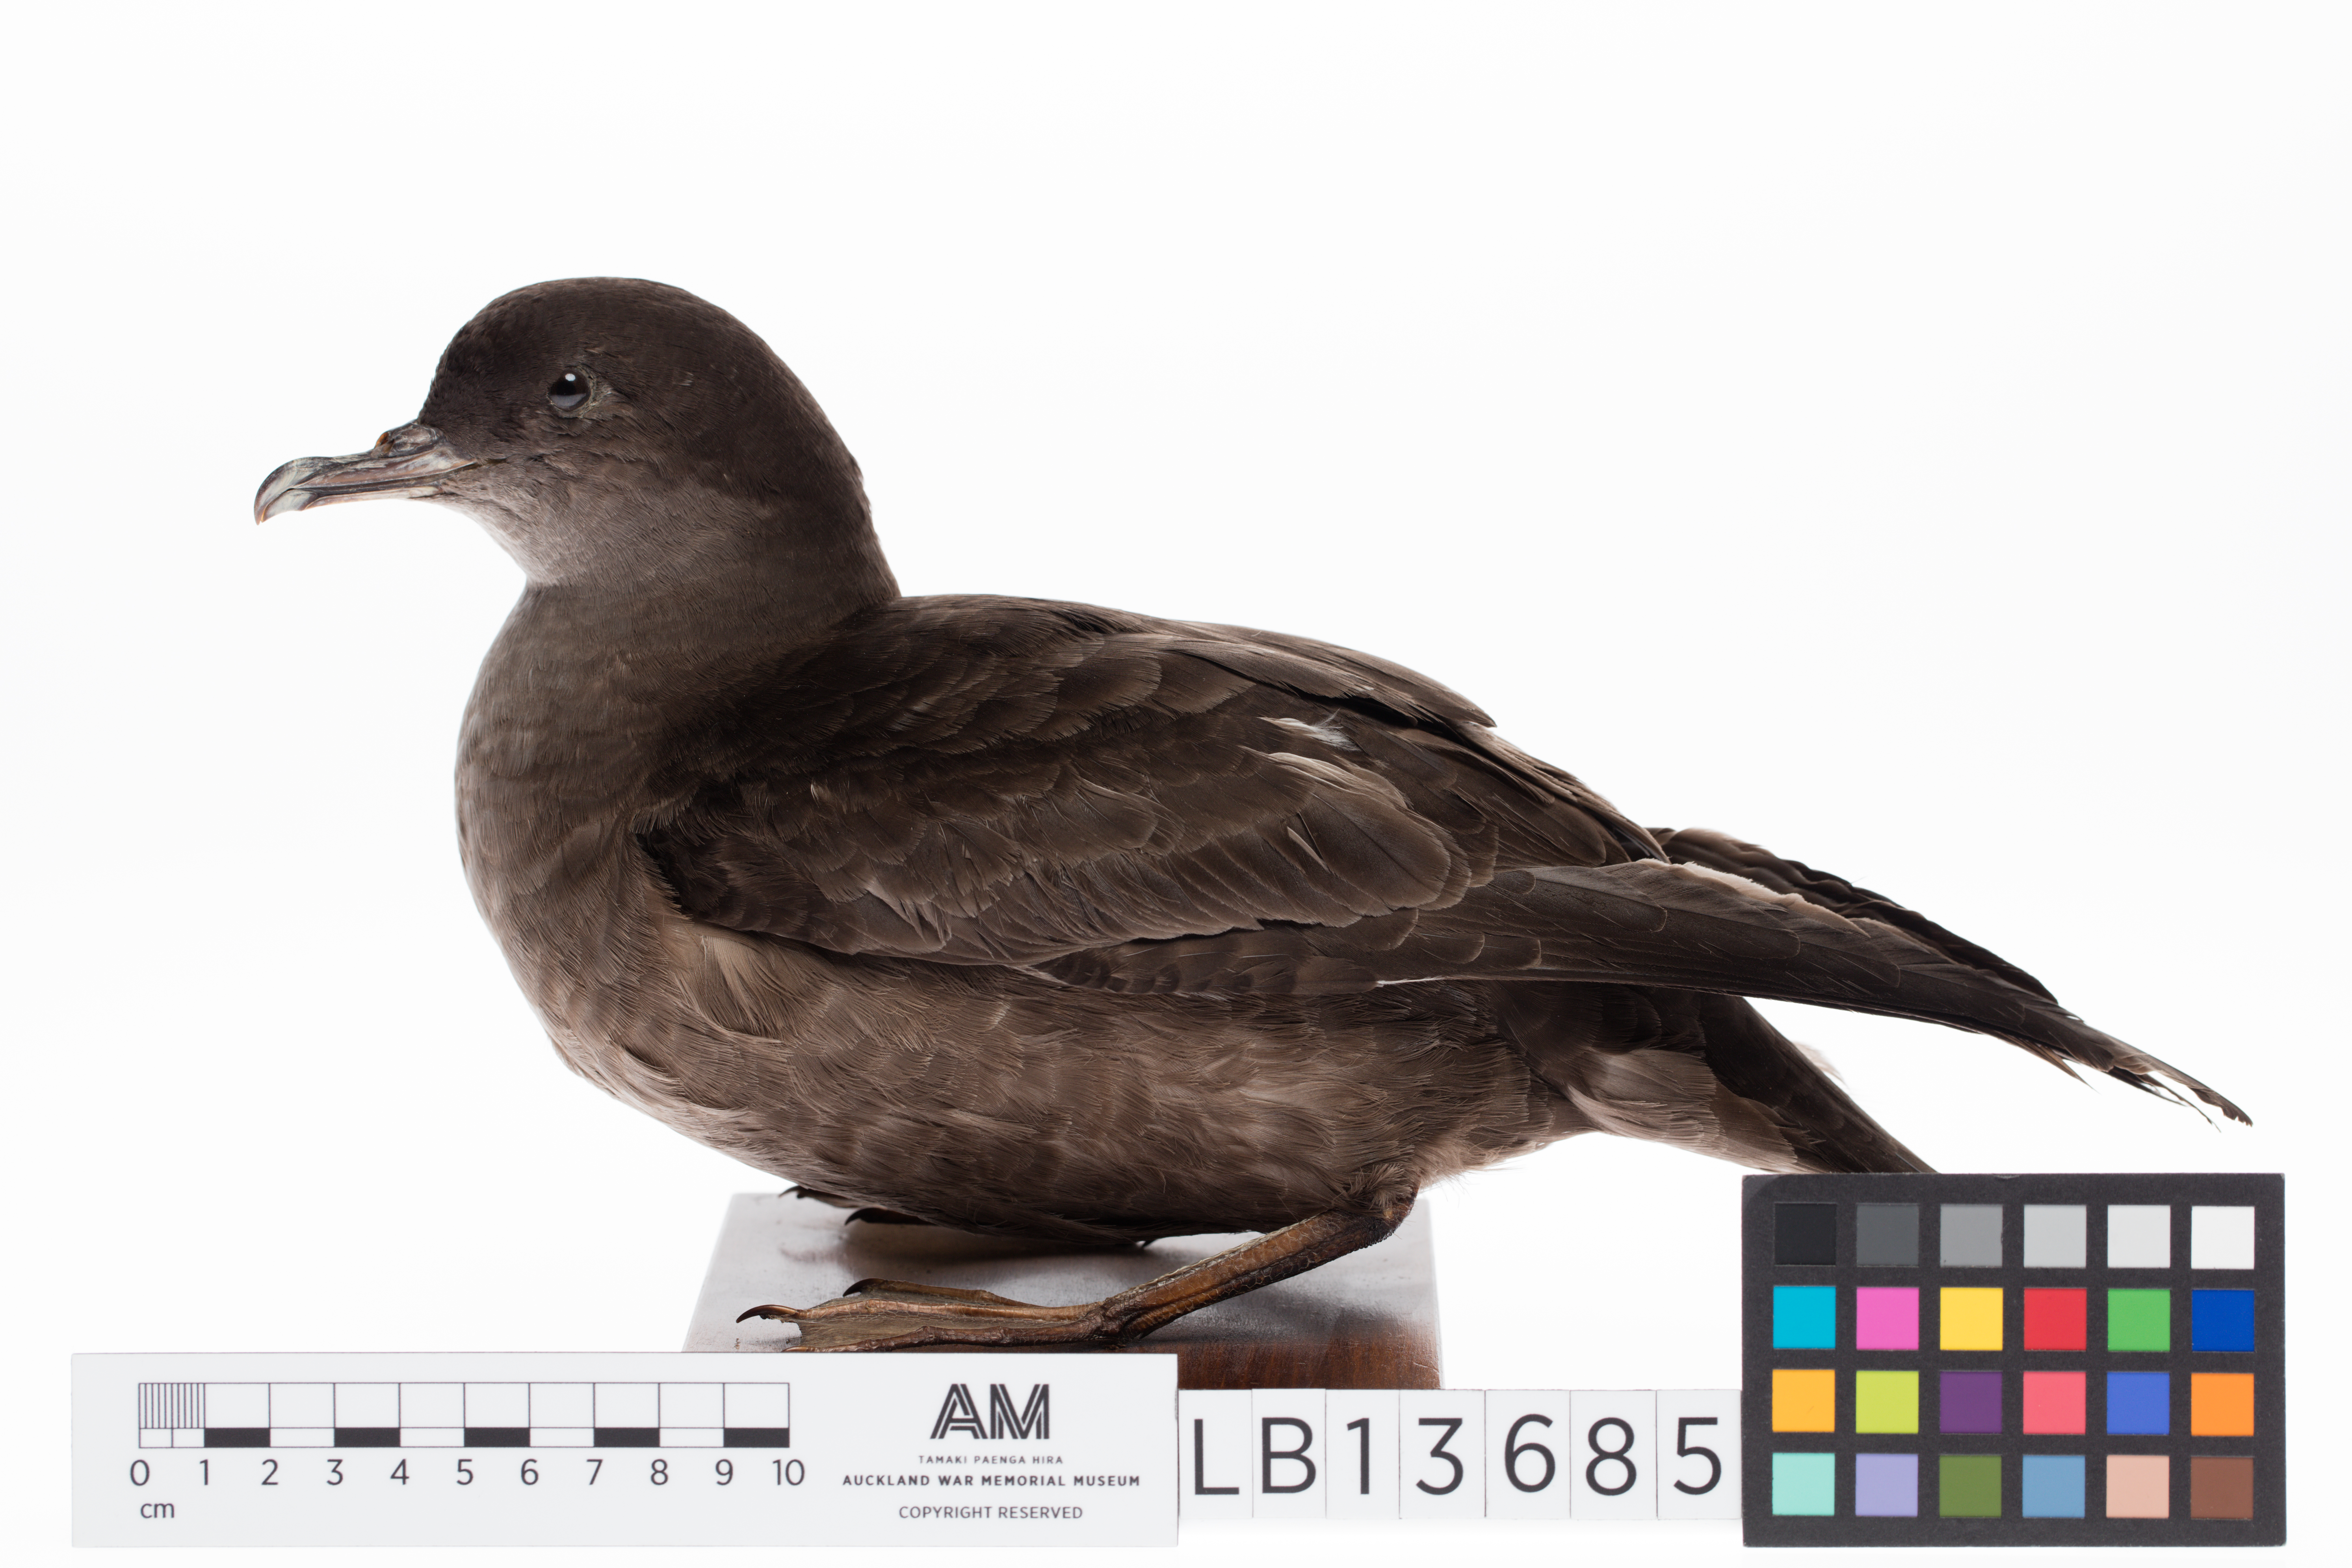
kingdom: Animalia
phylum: Chordata
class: Aves
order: Procellariiformes
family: Procellariidae
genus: Puffinus
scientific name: Puffinus tenuirostris
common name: Short-tailed shearwater
